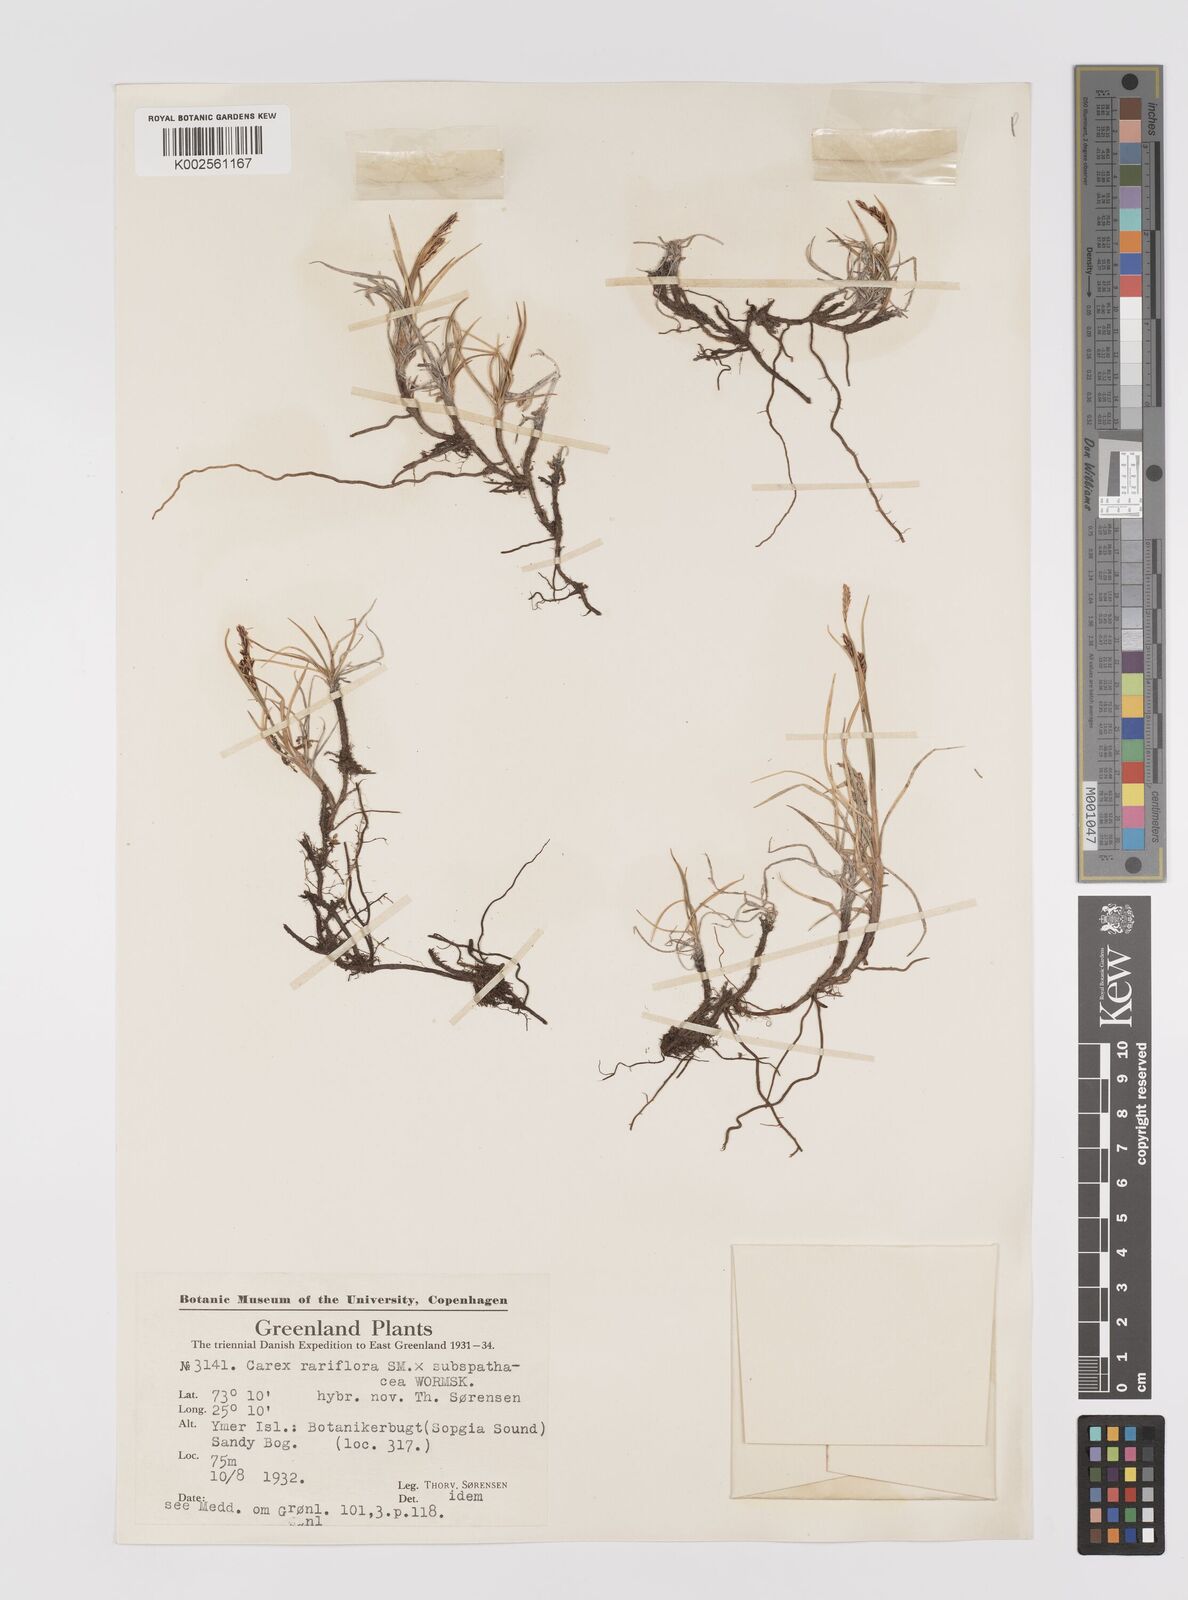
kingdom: Plantae
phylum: Tracheophyta
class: Liliopsida
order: Poales
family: Cyperaceae
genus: Carex
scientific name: Carex rariflora
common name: Loose-flowered alpine sedge
